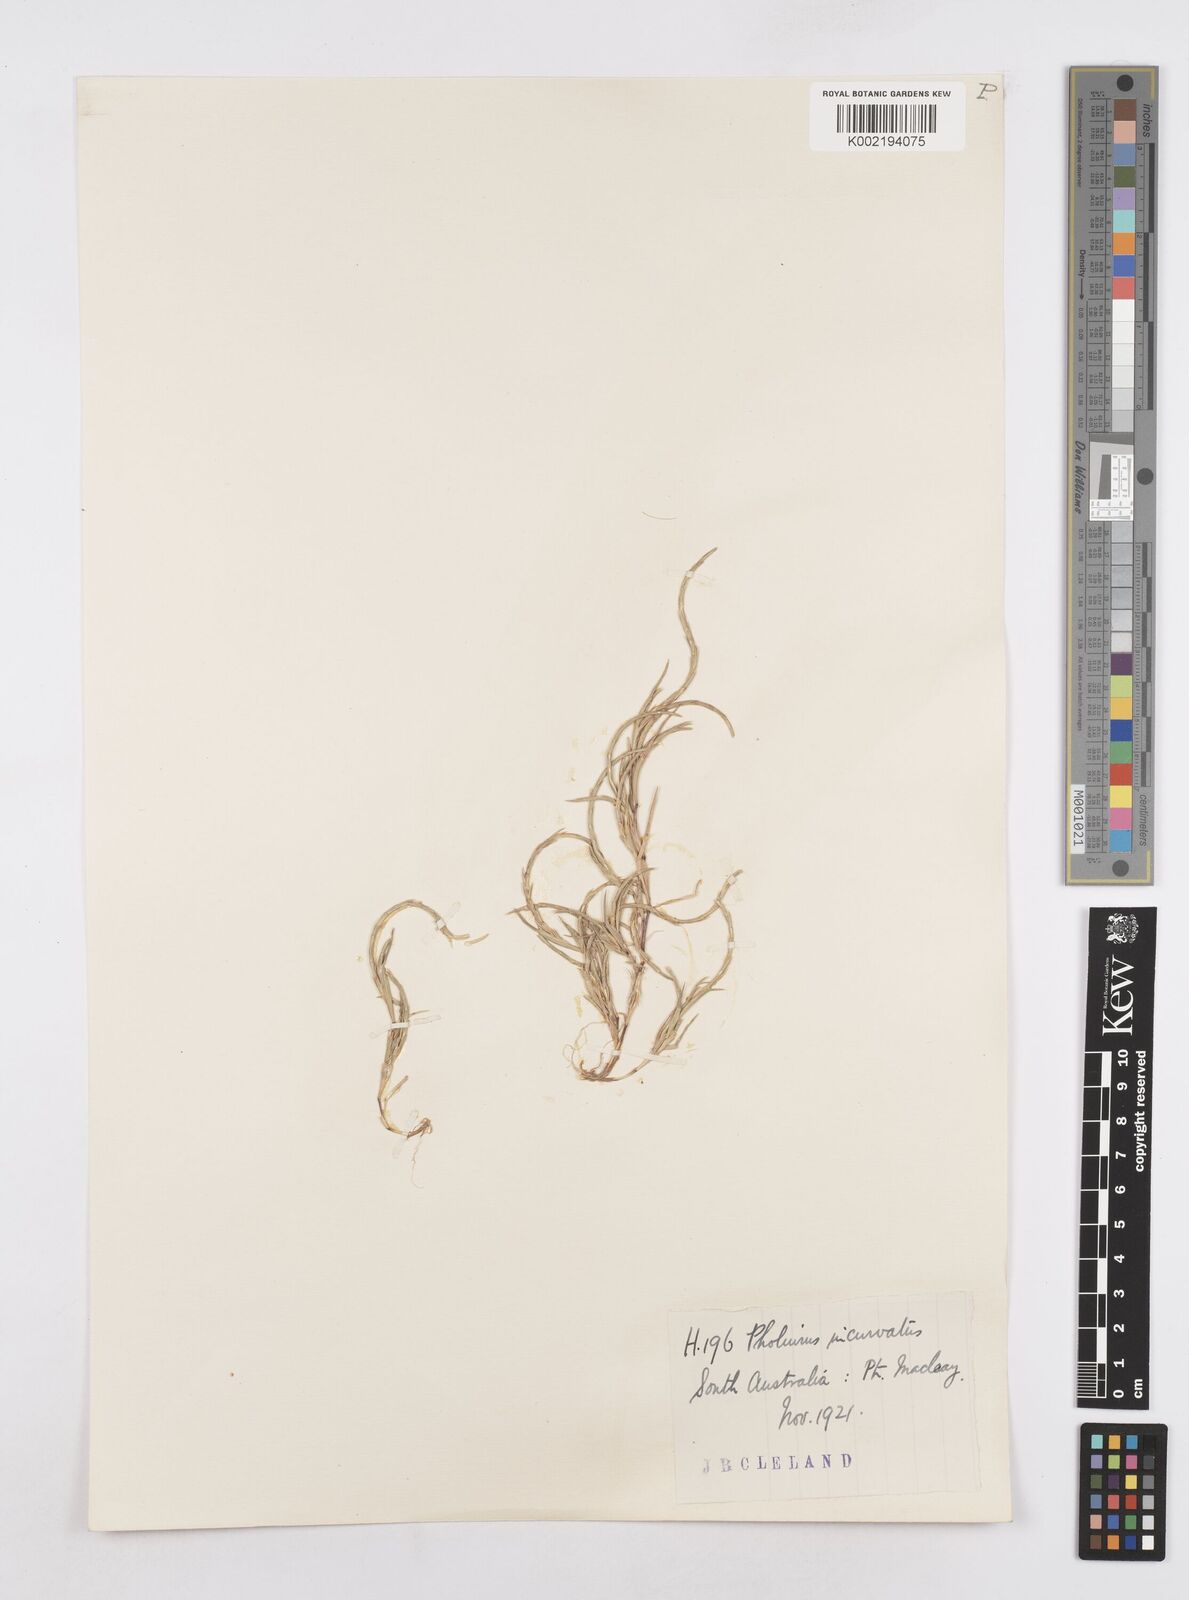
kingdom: Plantae
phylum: Tracheophyta
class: Liliopsida
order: Poales
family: Poaceae
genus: Parapholis
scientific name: Parapholis incurva
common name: Curved sicklegrass
